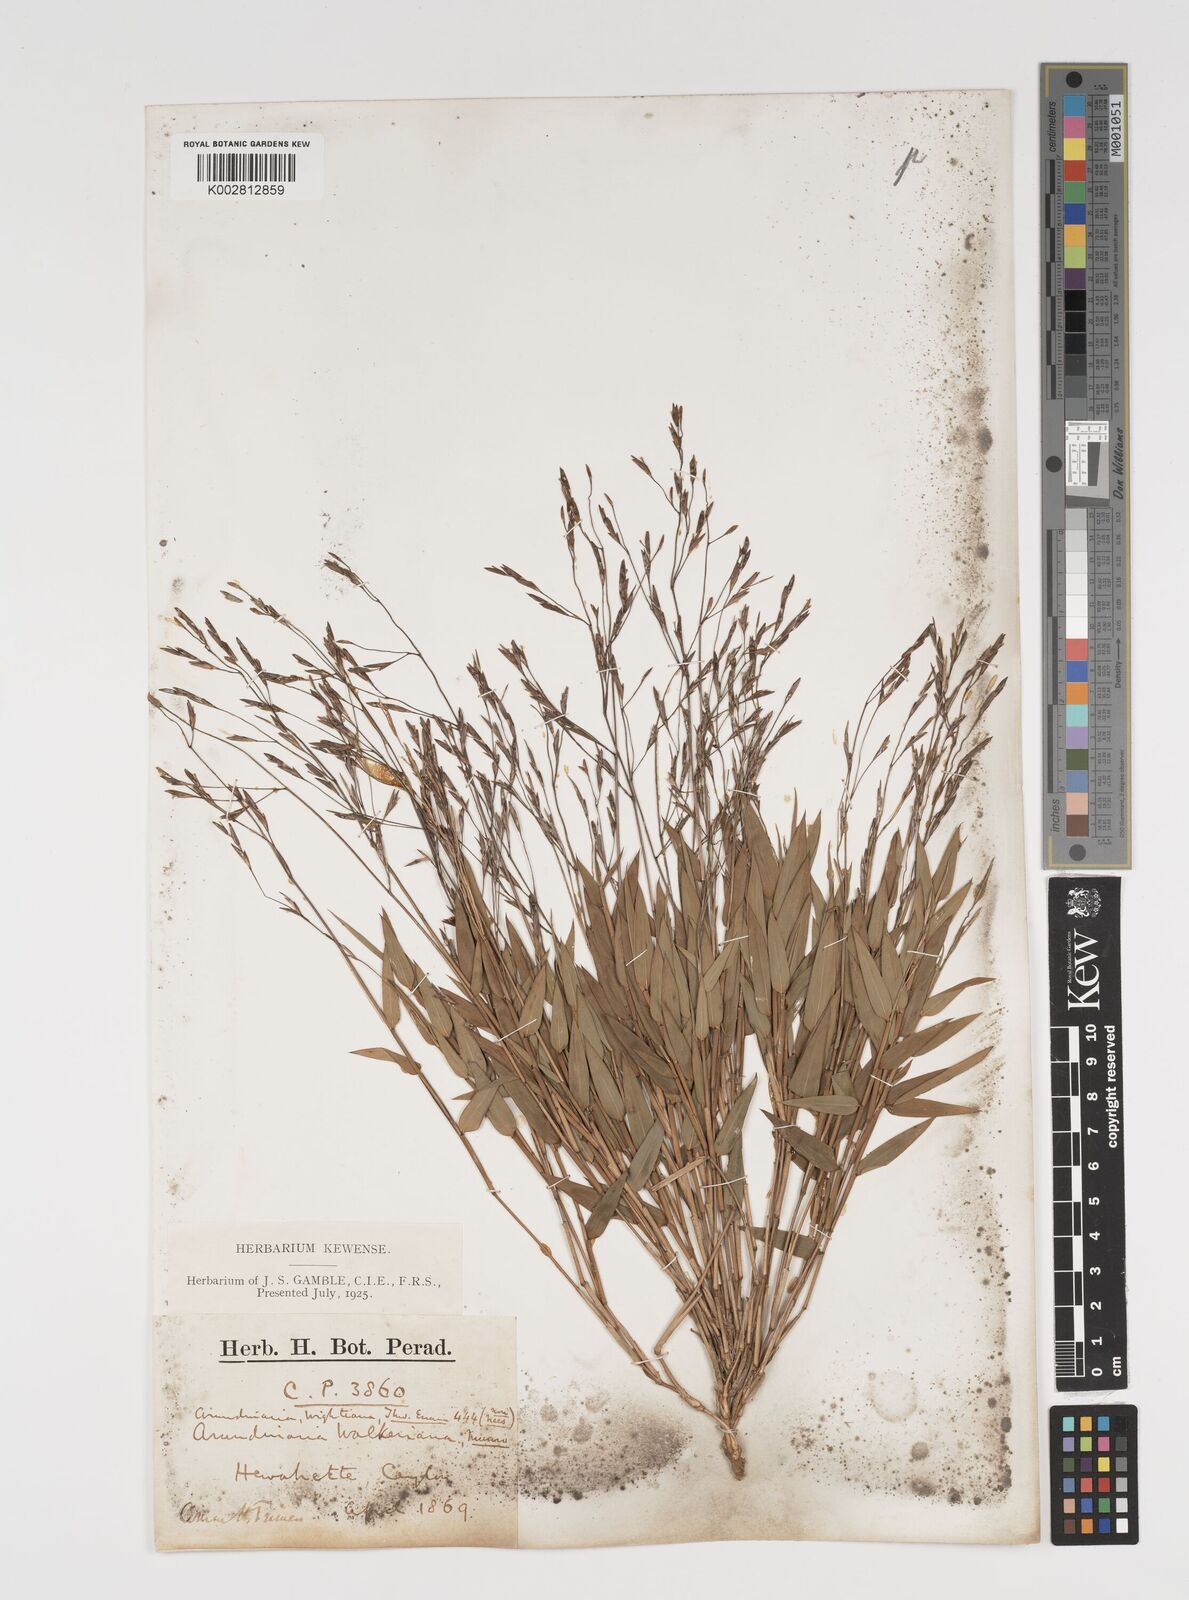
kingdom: Plantae
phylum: Tracheophyta
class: Liliopsida
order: Poales
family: Poaceae
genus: Kuruna
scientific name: Kuruna scandens
